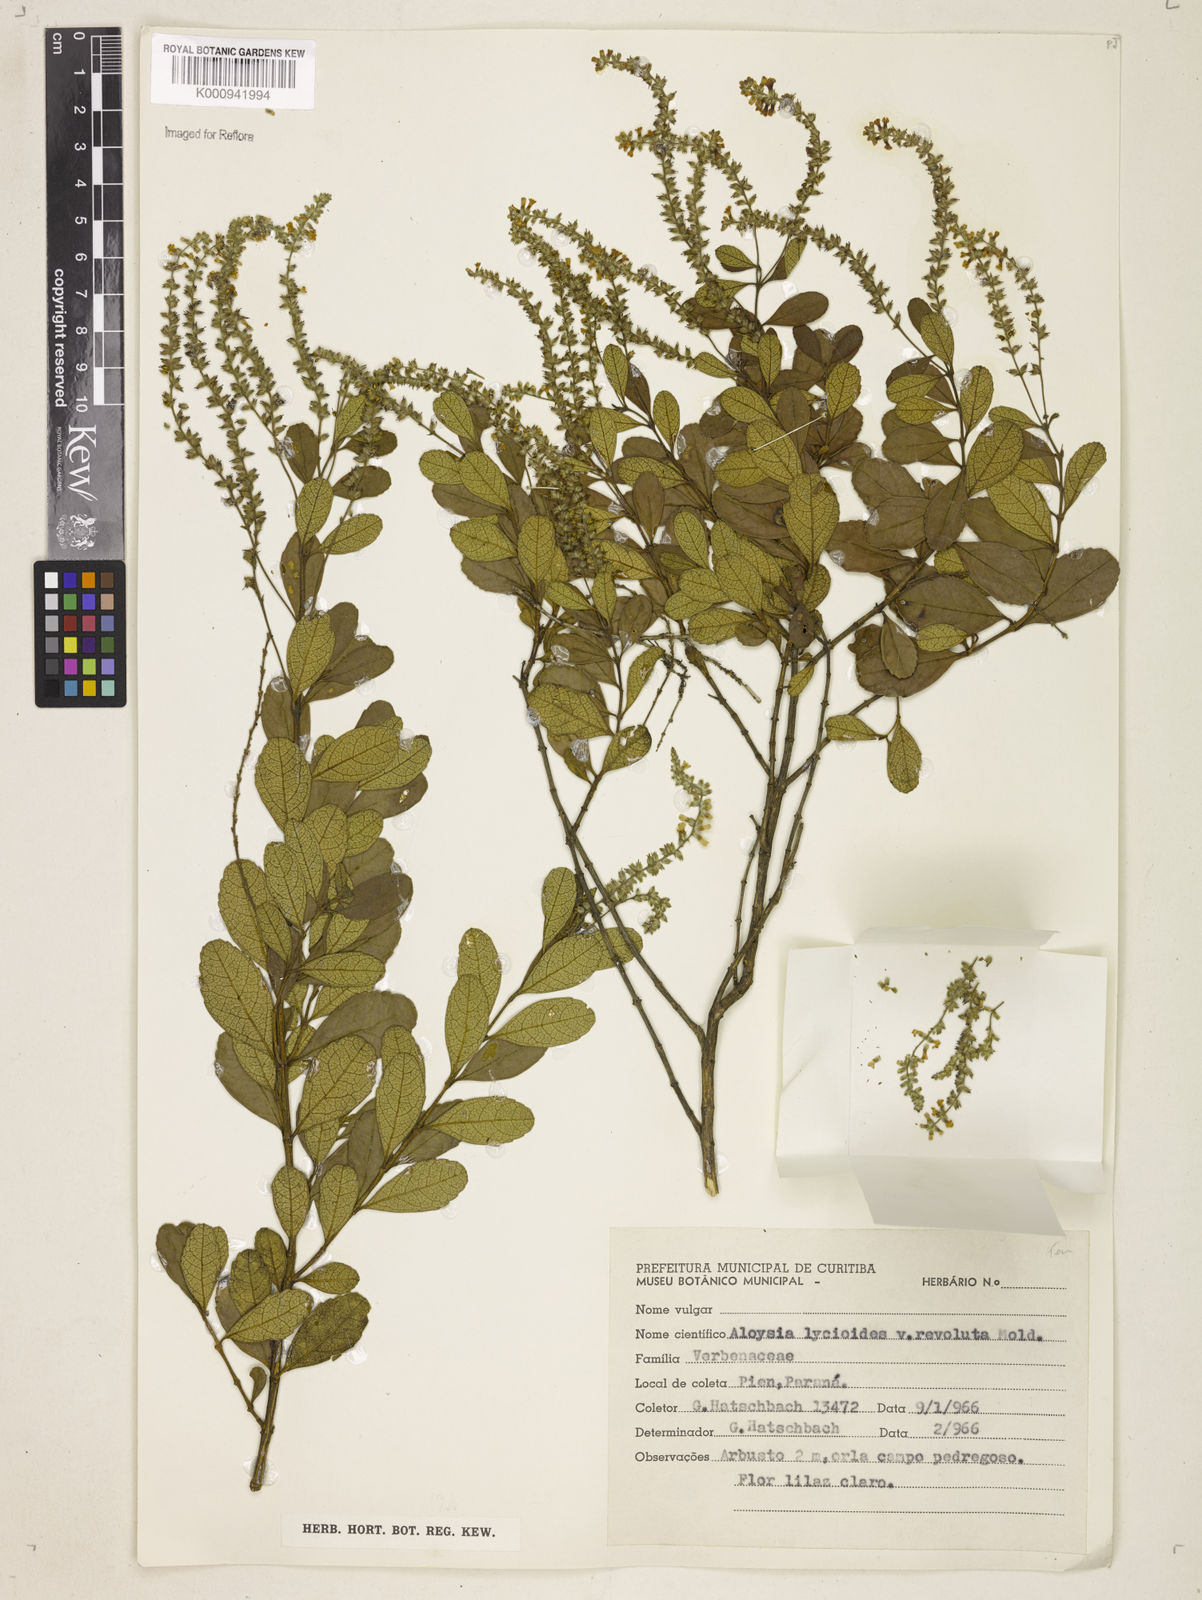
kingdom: Plantae
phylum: Tracheophyta
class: Magnoliopsida
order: Lamiales
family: Verbenaceae
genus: Aloysia
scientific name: Aloysia
